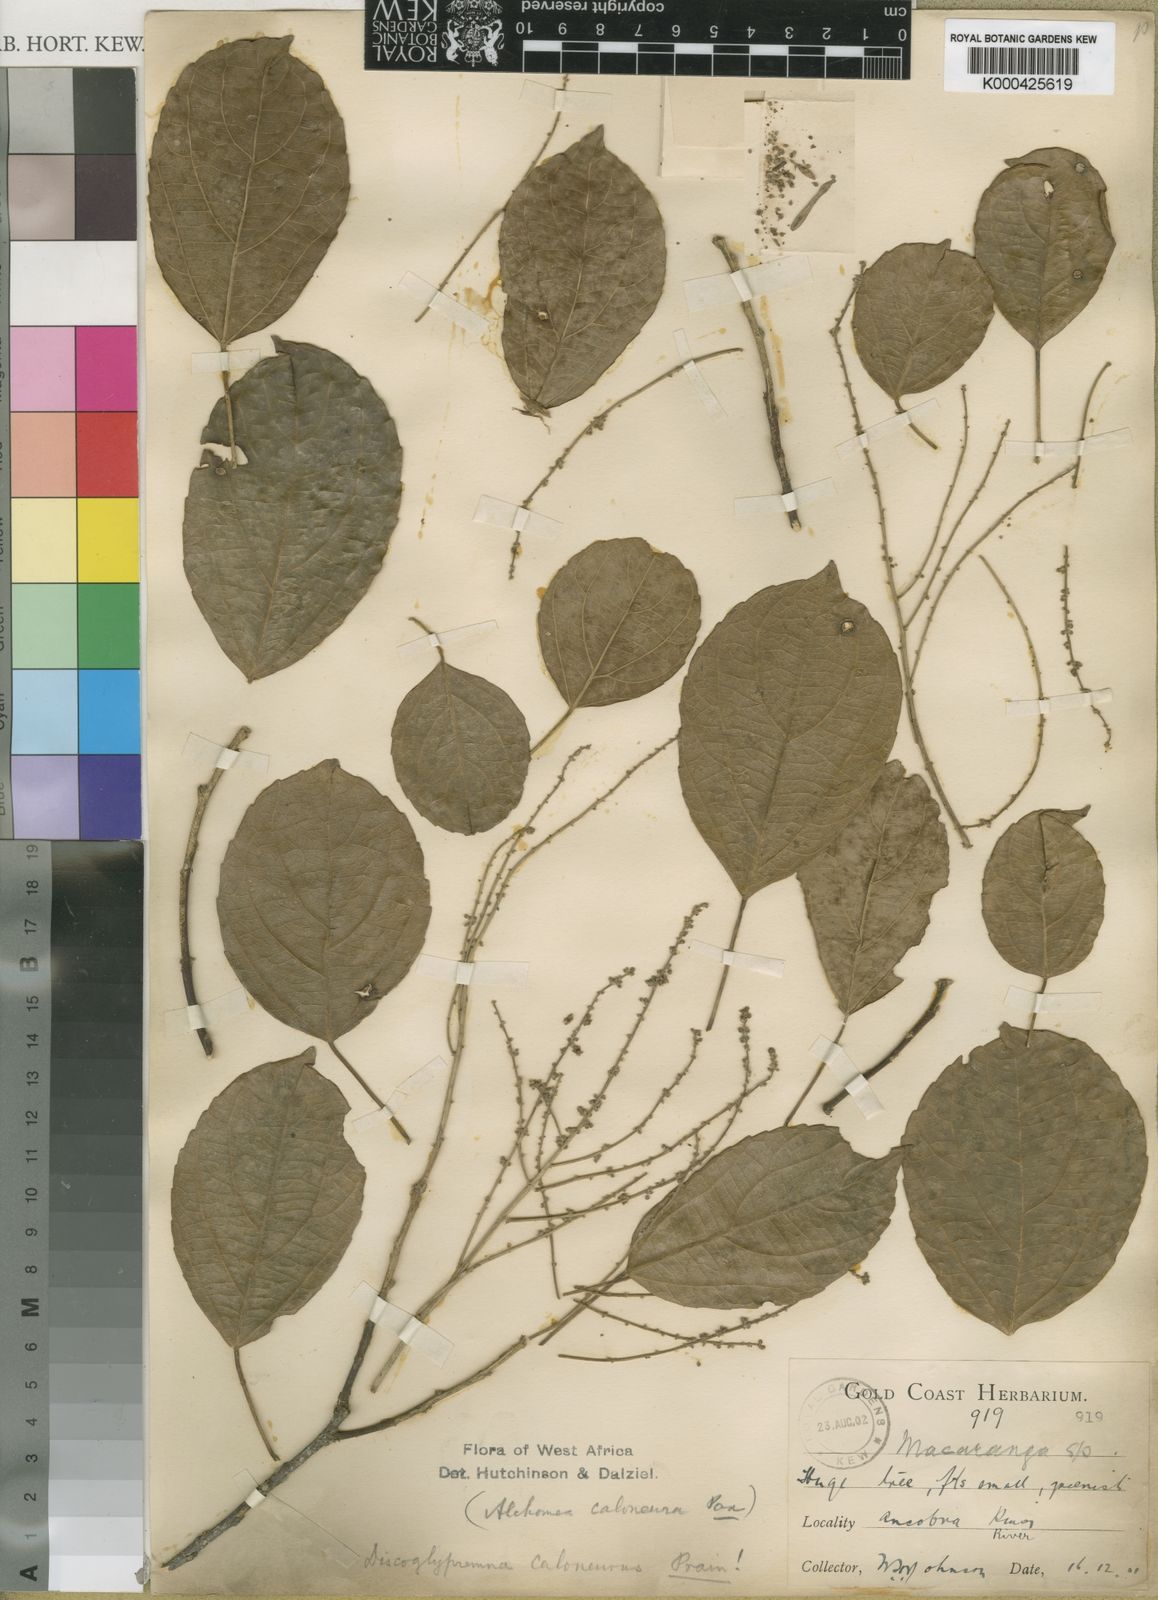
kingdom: Plantae
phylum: Tracheophyta
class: Magnoliopsida
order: Malpighiales
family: Euphorbiaceae
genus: Discoglypremna
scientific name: Discoglypremna caloneura
